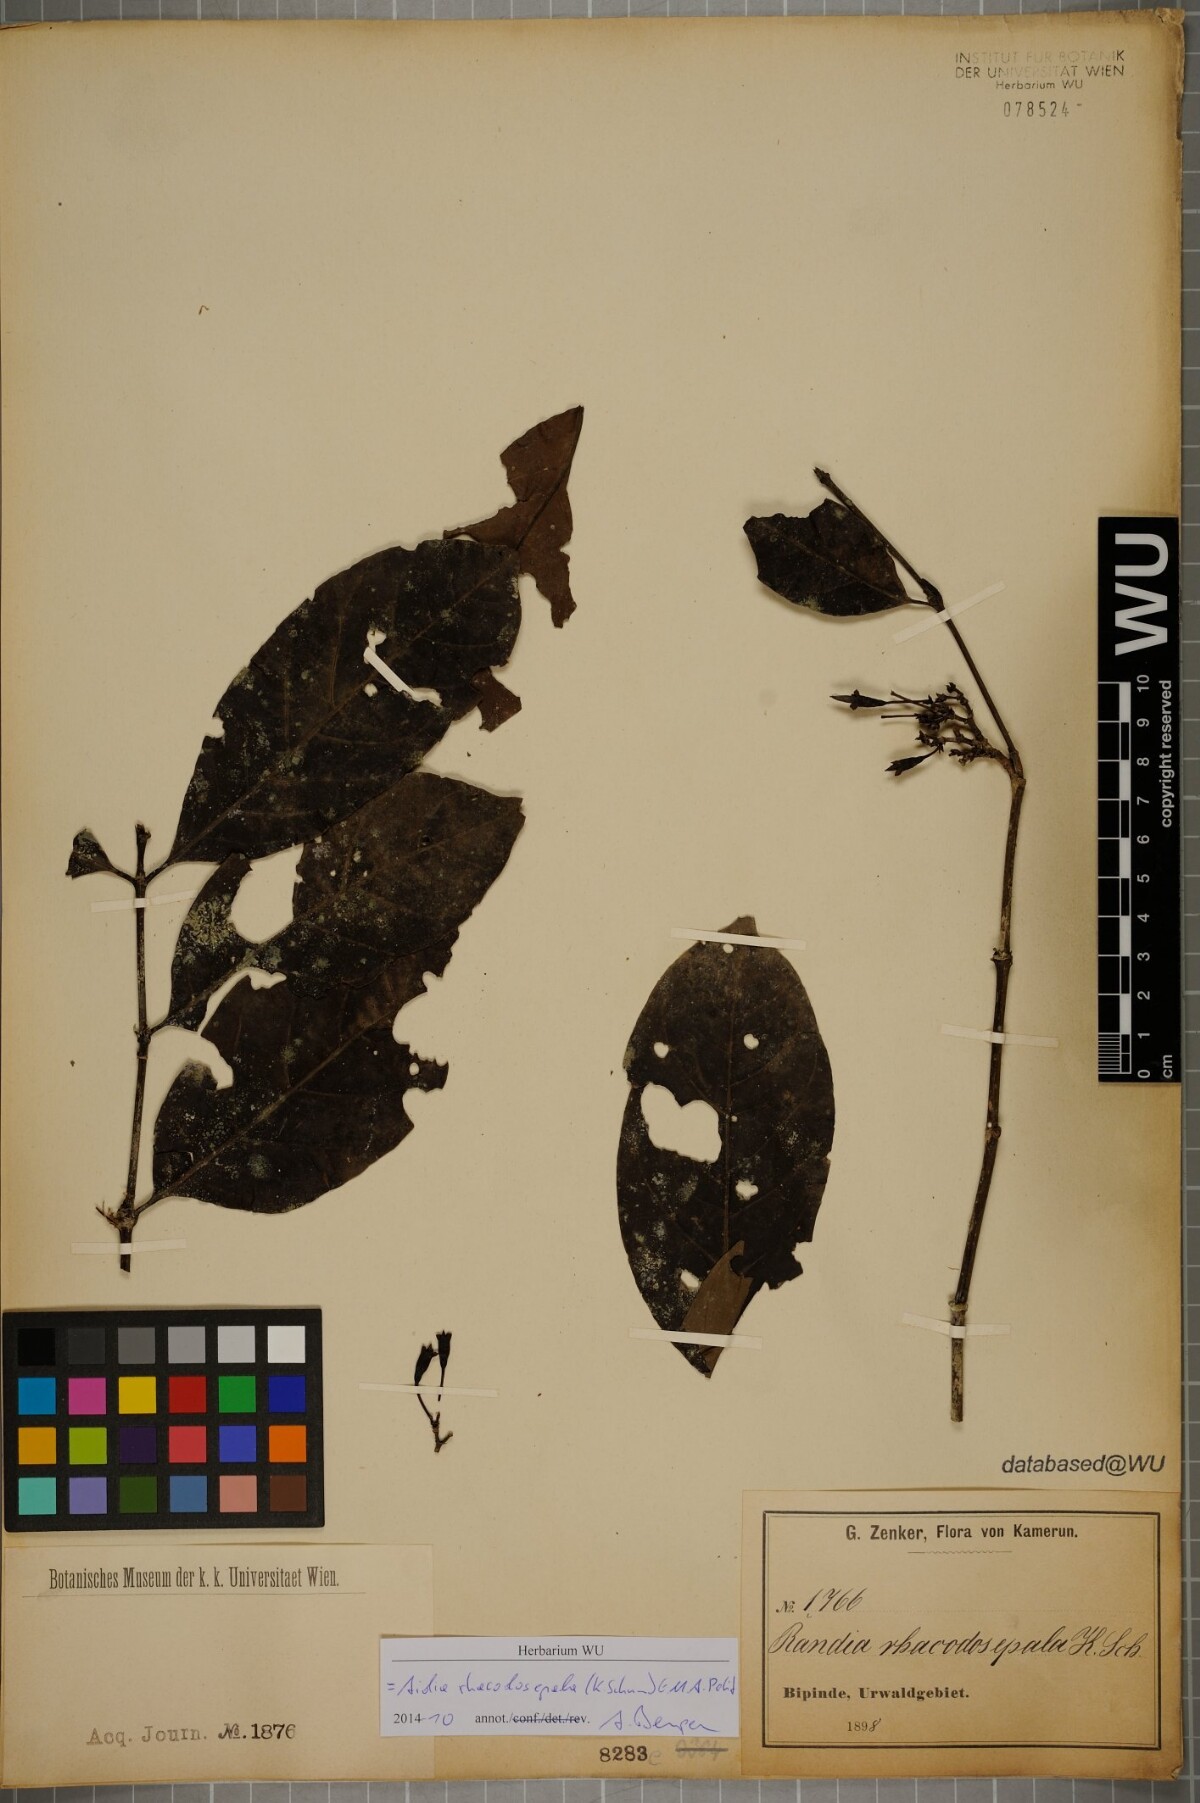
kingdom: Plantae
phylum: Tracheophyta
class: Magnoliopsida
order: Gentianales
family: Rubiaceae
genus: Aidia
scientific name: Aidia rhacodosepala
